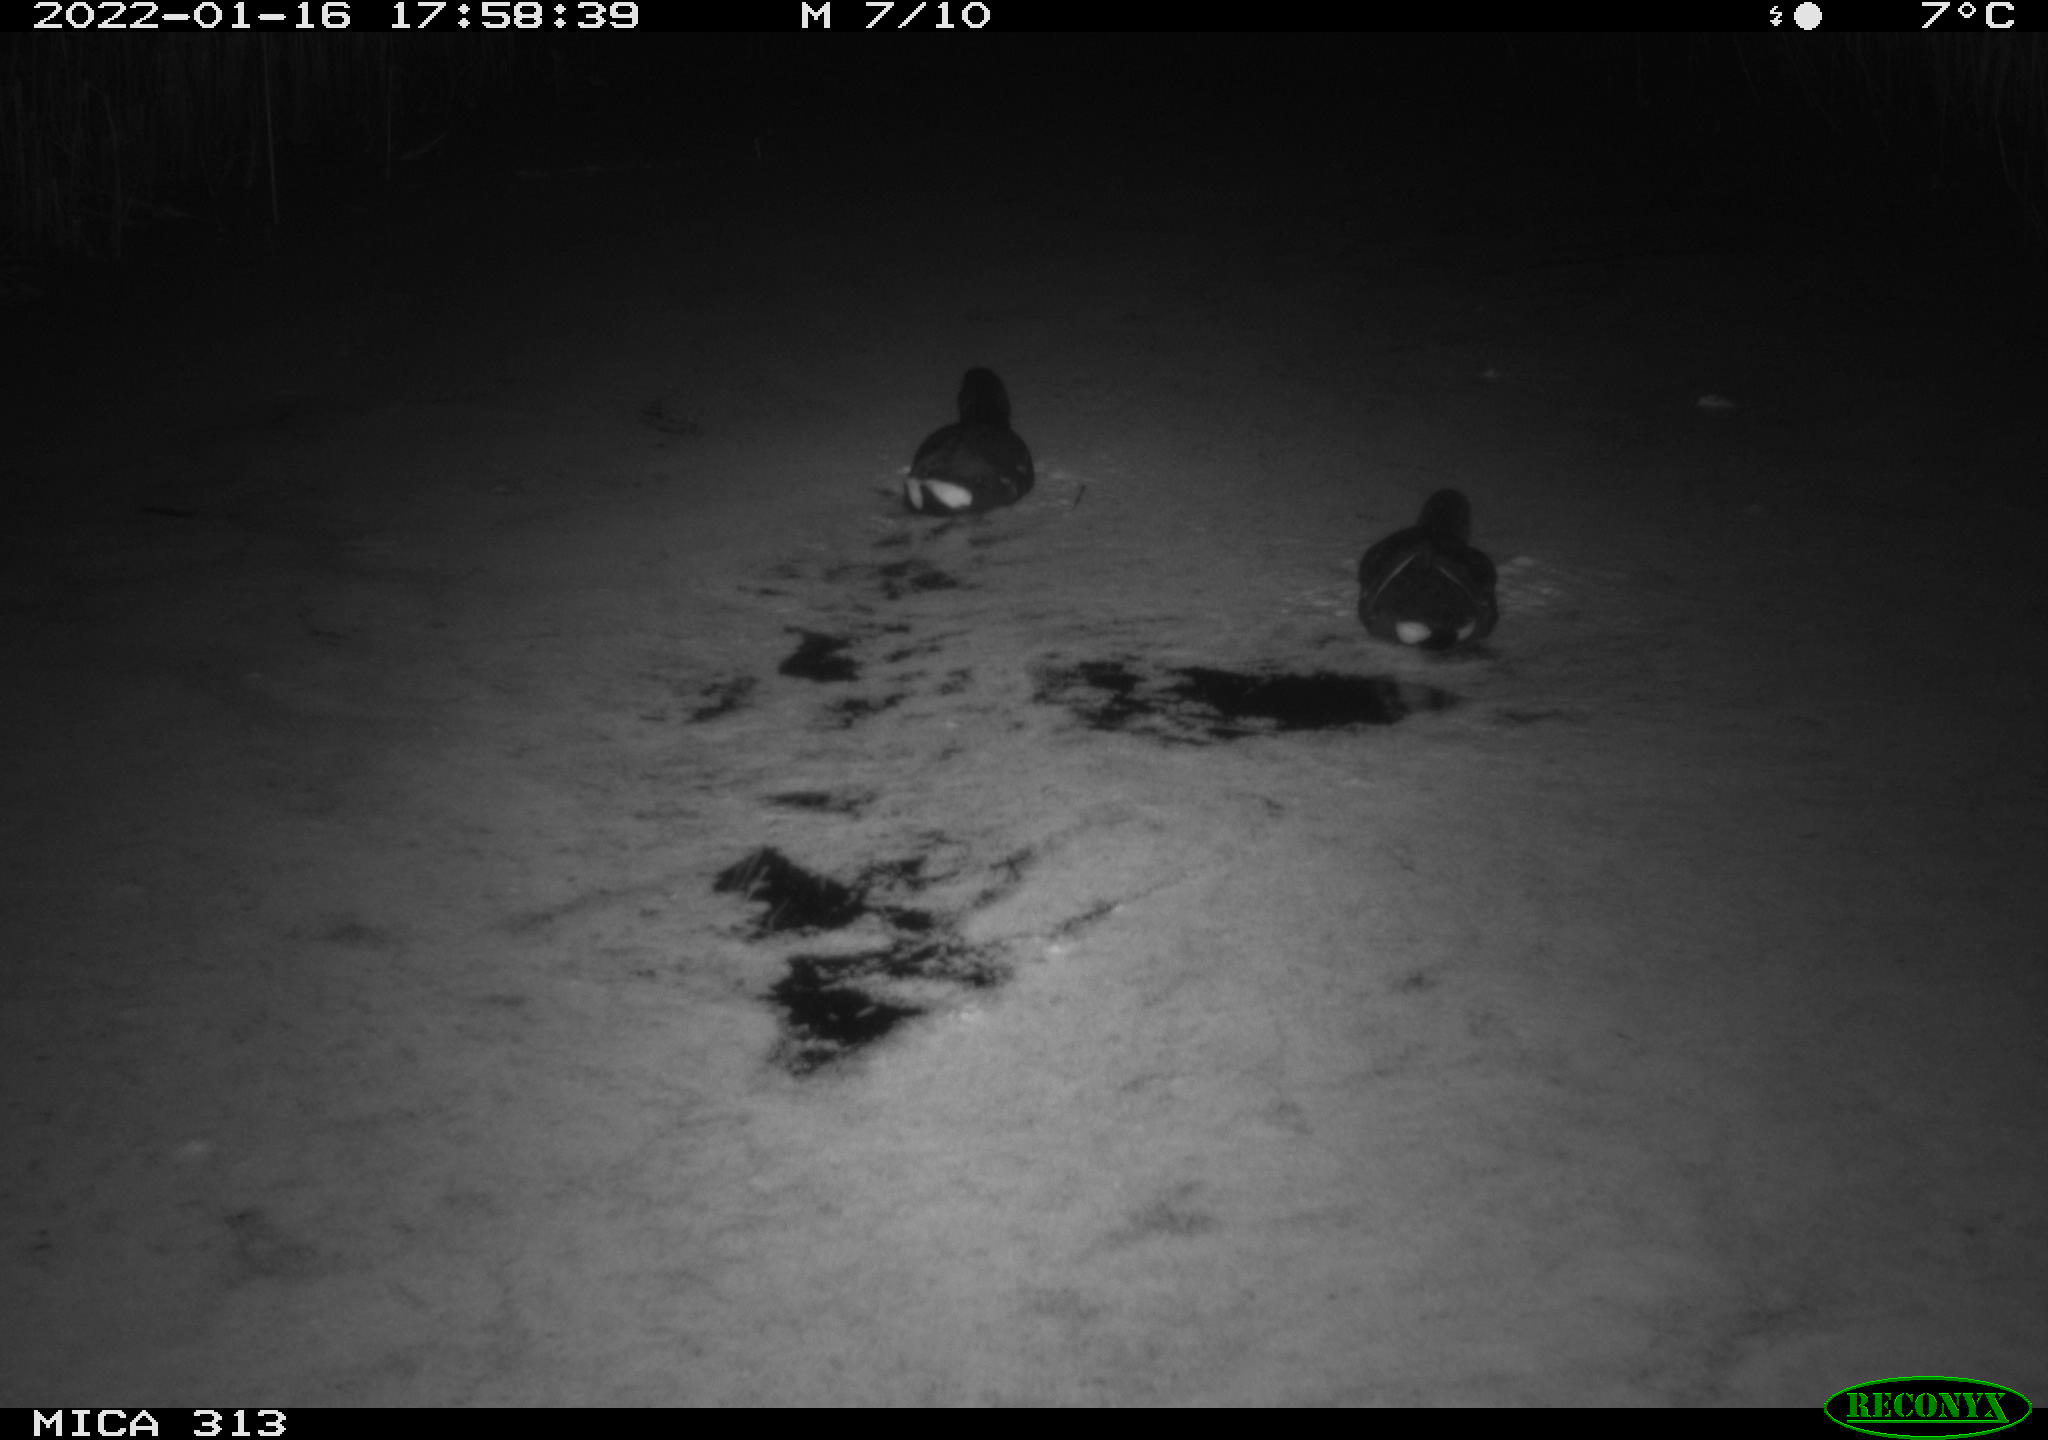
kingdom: Animalia
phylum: Chordata
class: Aves
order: Gruiformes
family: Rallidae
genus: Gallinula
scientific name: Gallinula chloropus
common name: Common moorhen
